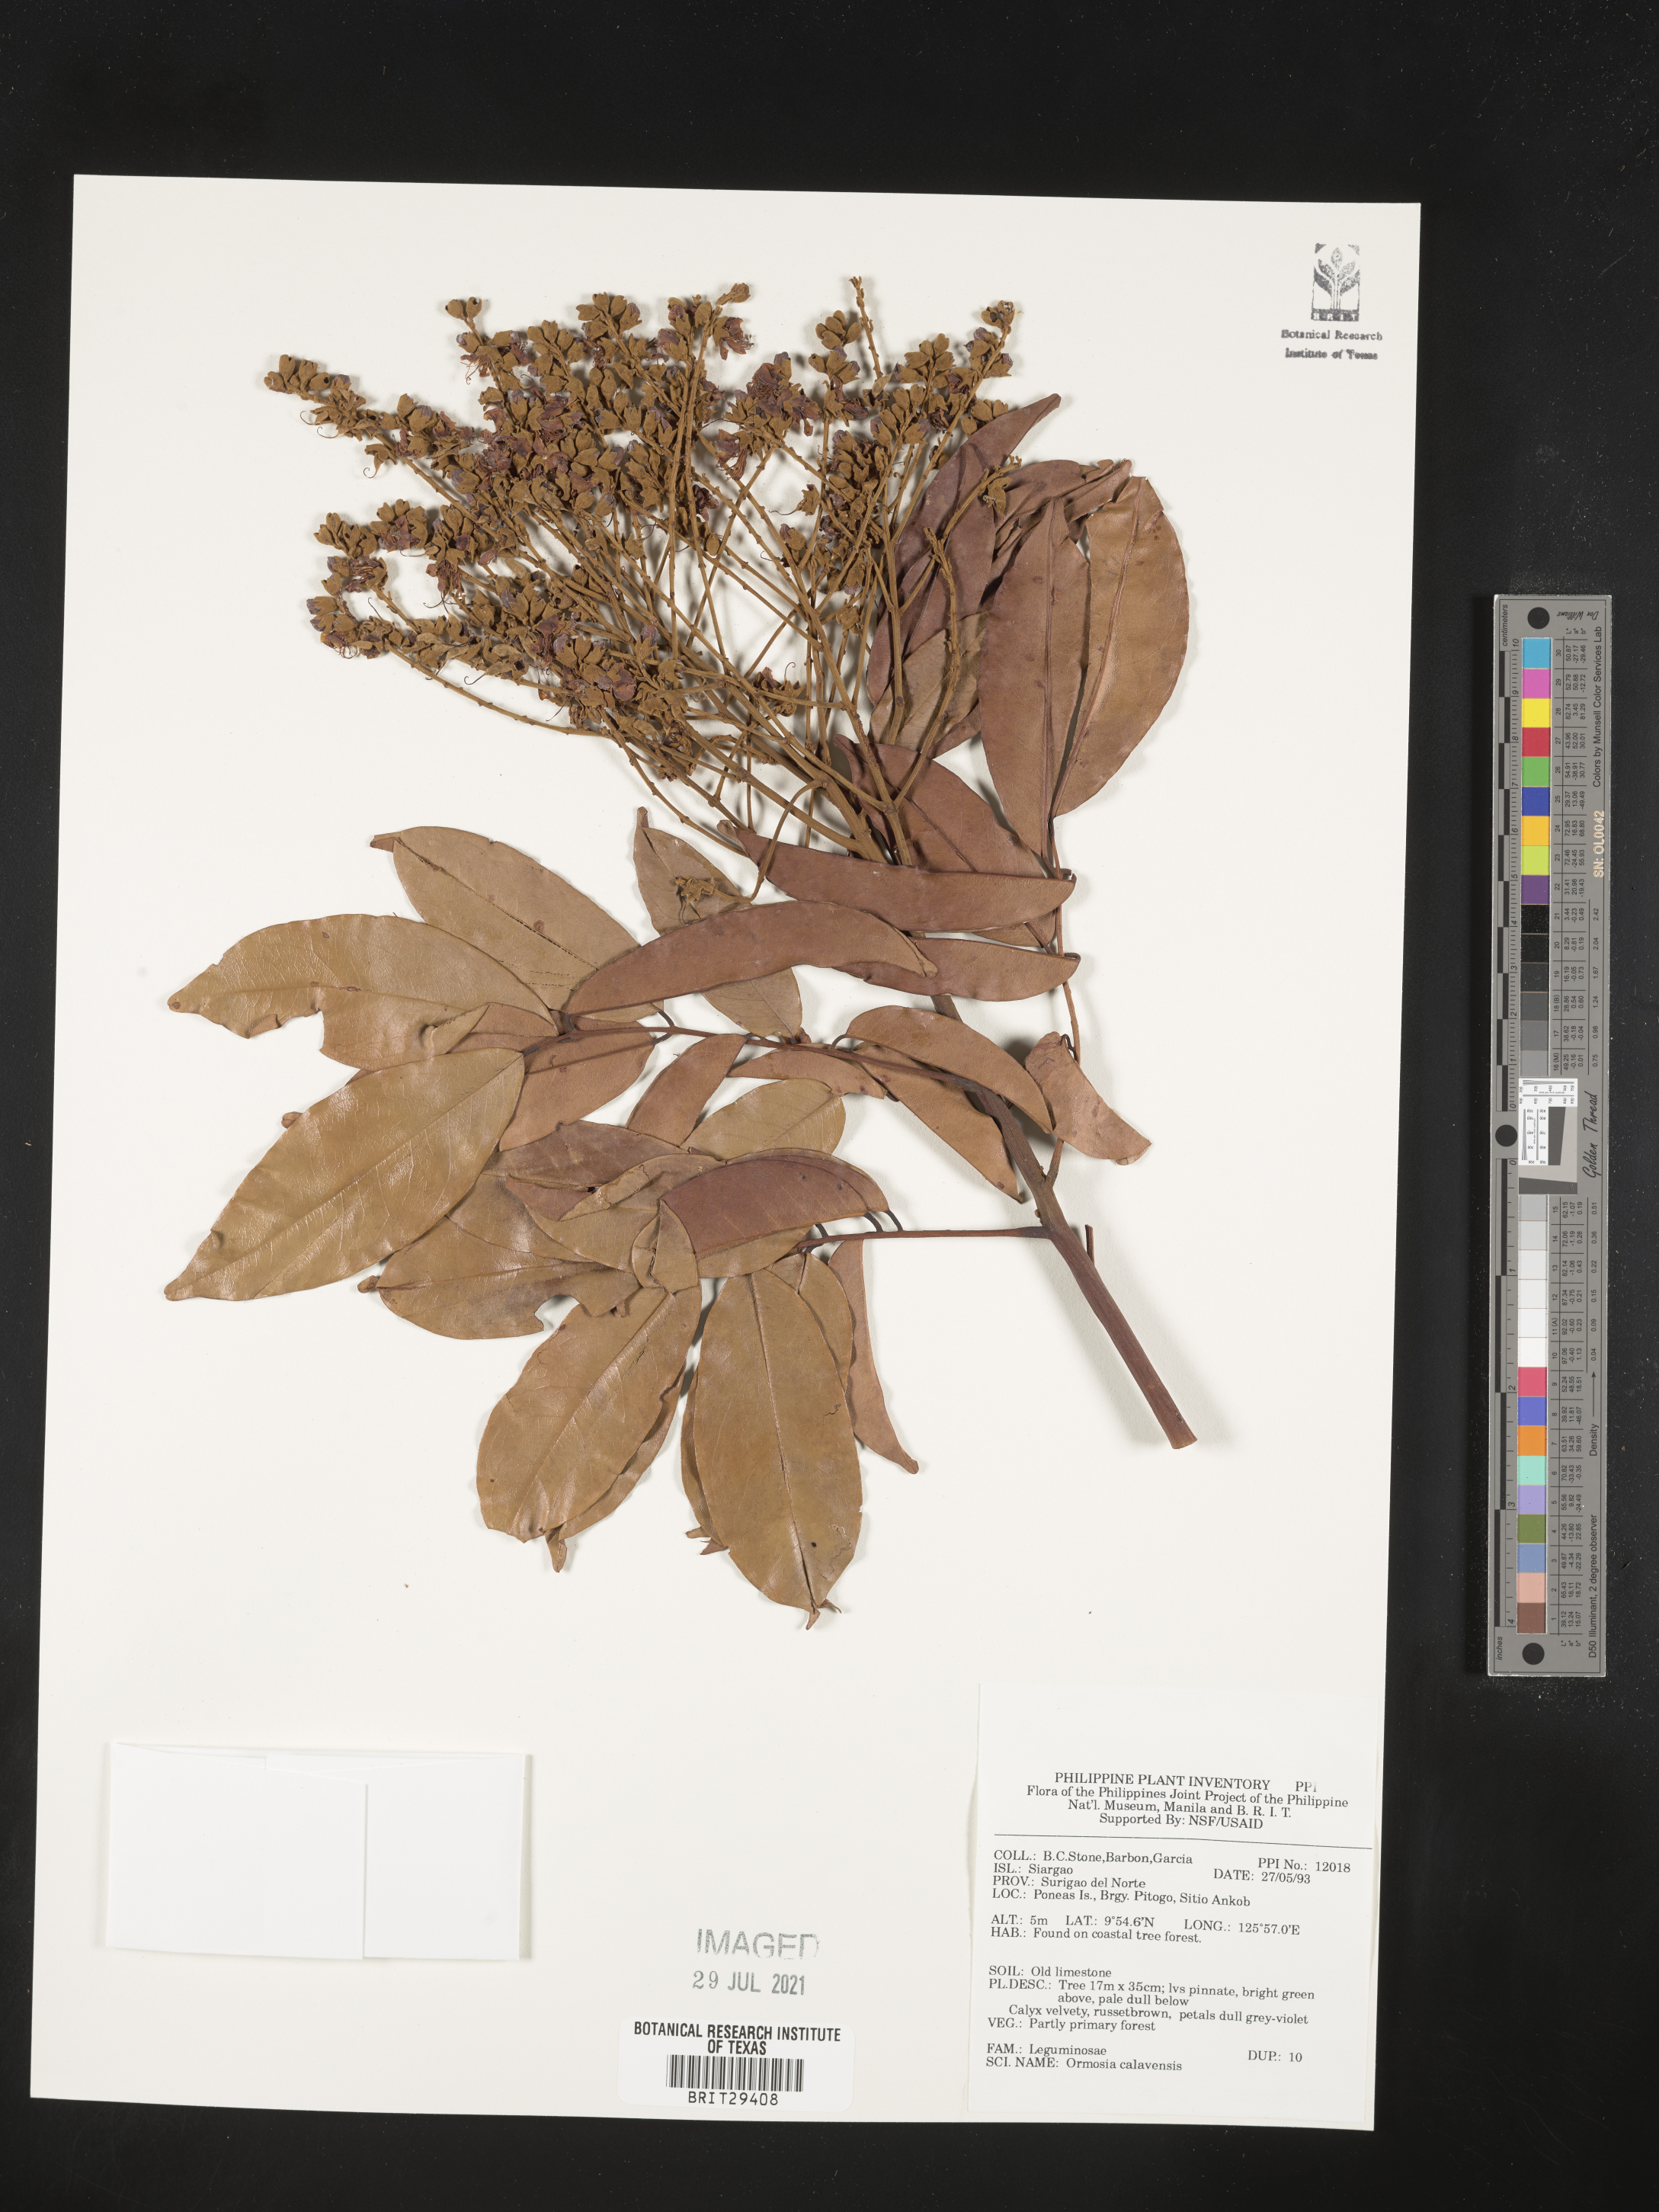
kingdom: Plantae
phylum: Tracheophyta
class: Magnoliopsida
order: Fabales
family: Fabaceae
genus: Ormosia
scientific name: Ormosia calavensis
